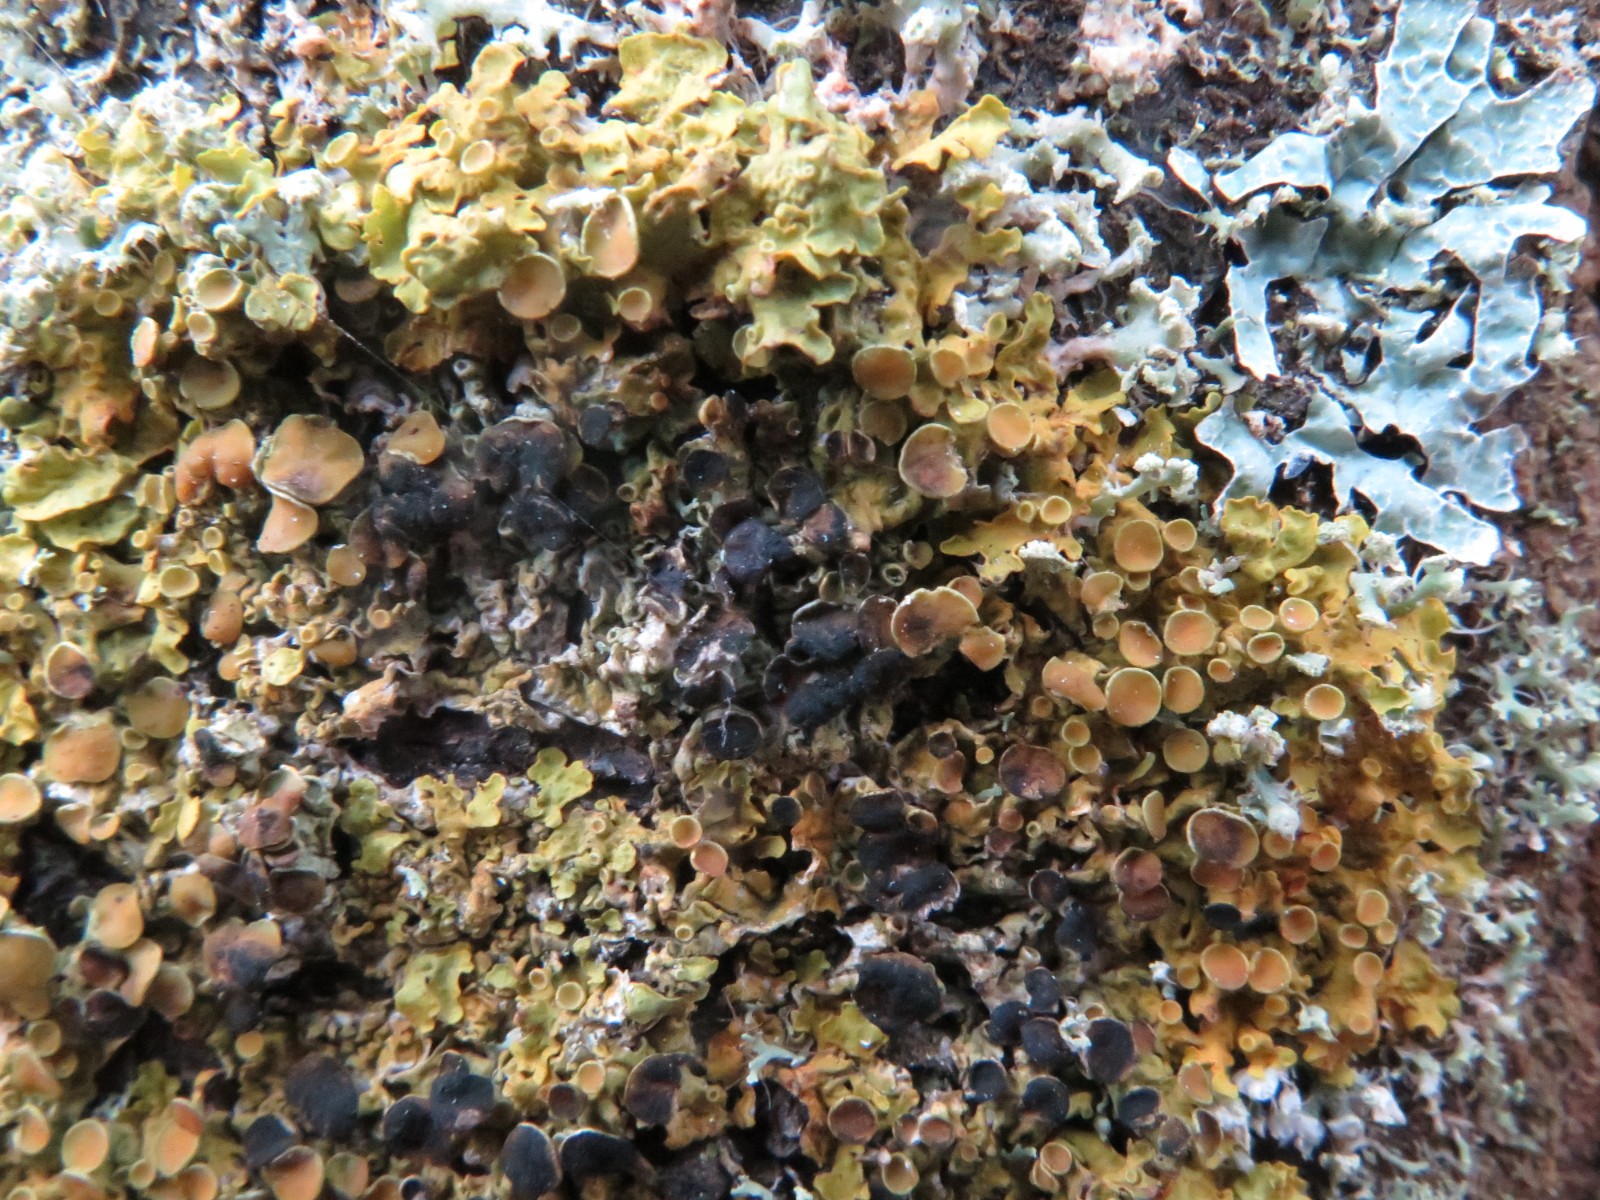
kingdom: Fungi
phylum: Ascomycota
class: Dothideomycetes
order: Mycosphaerellales
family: Teratosphaeriaceae
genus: Xanthoriicola
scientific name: Xanthoriicola physciae
